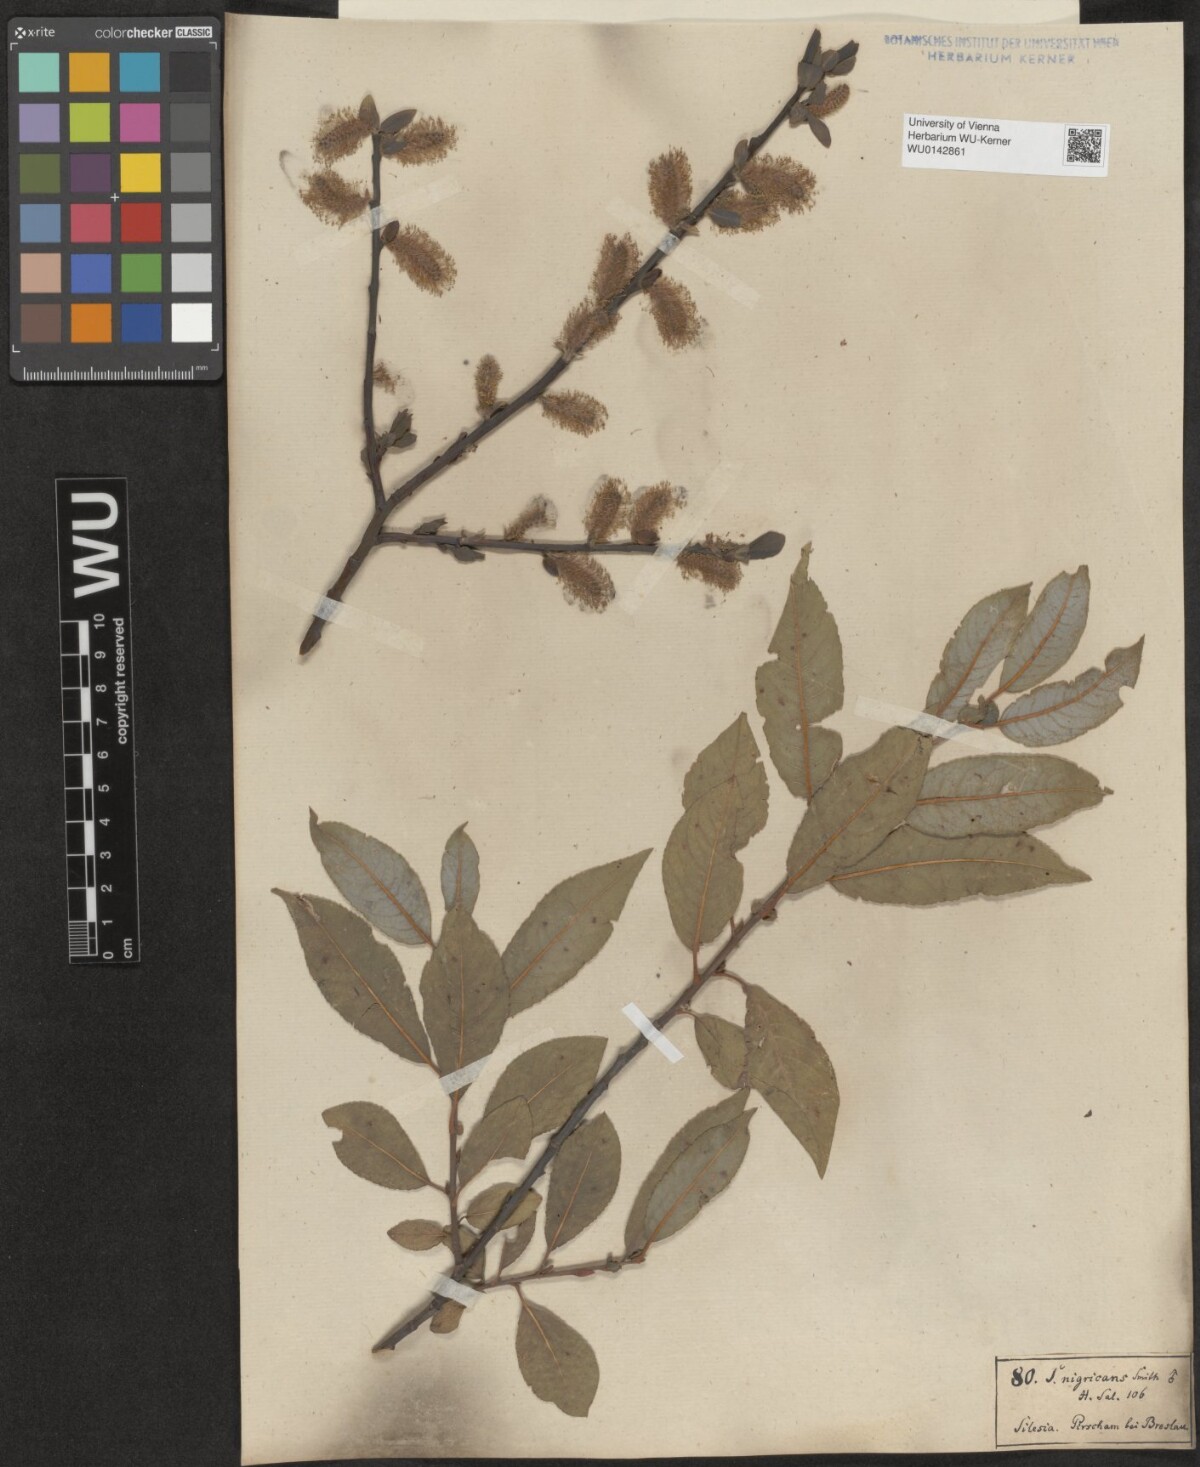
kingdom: Plantae
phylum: Tracheophyta
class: Magnoliopsida
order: Malpighiales
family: Salicaceae
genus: Salix
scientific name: Salix myrsinifolia
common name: Dark-leaved willow
